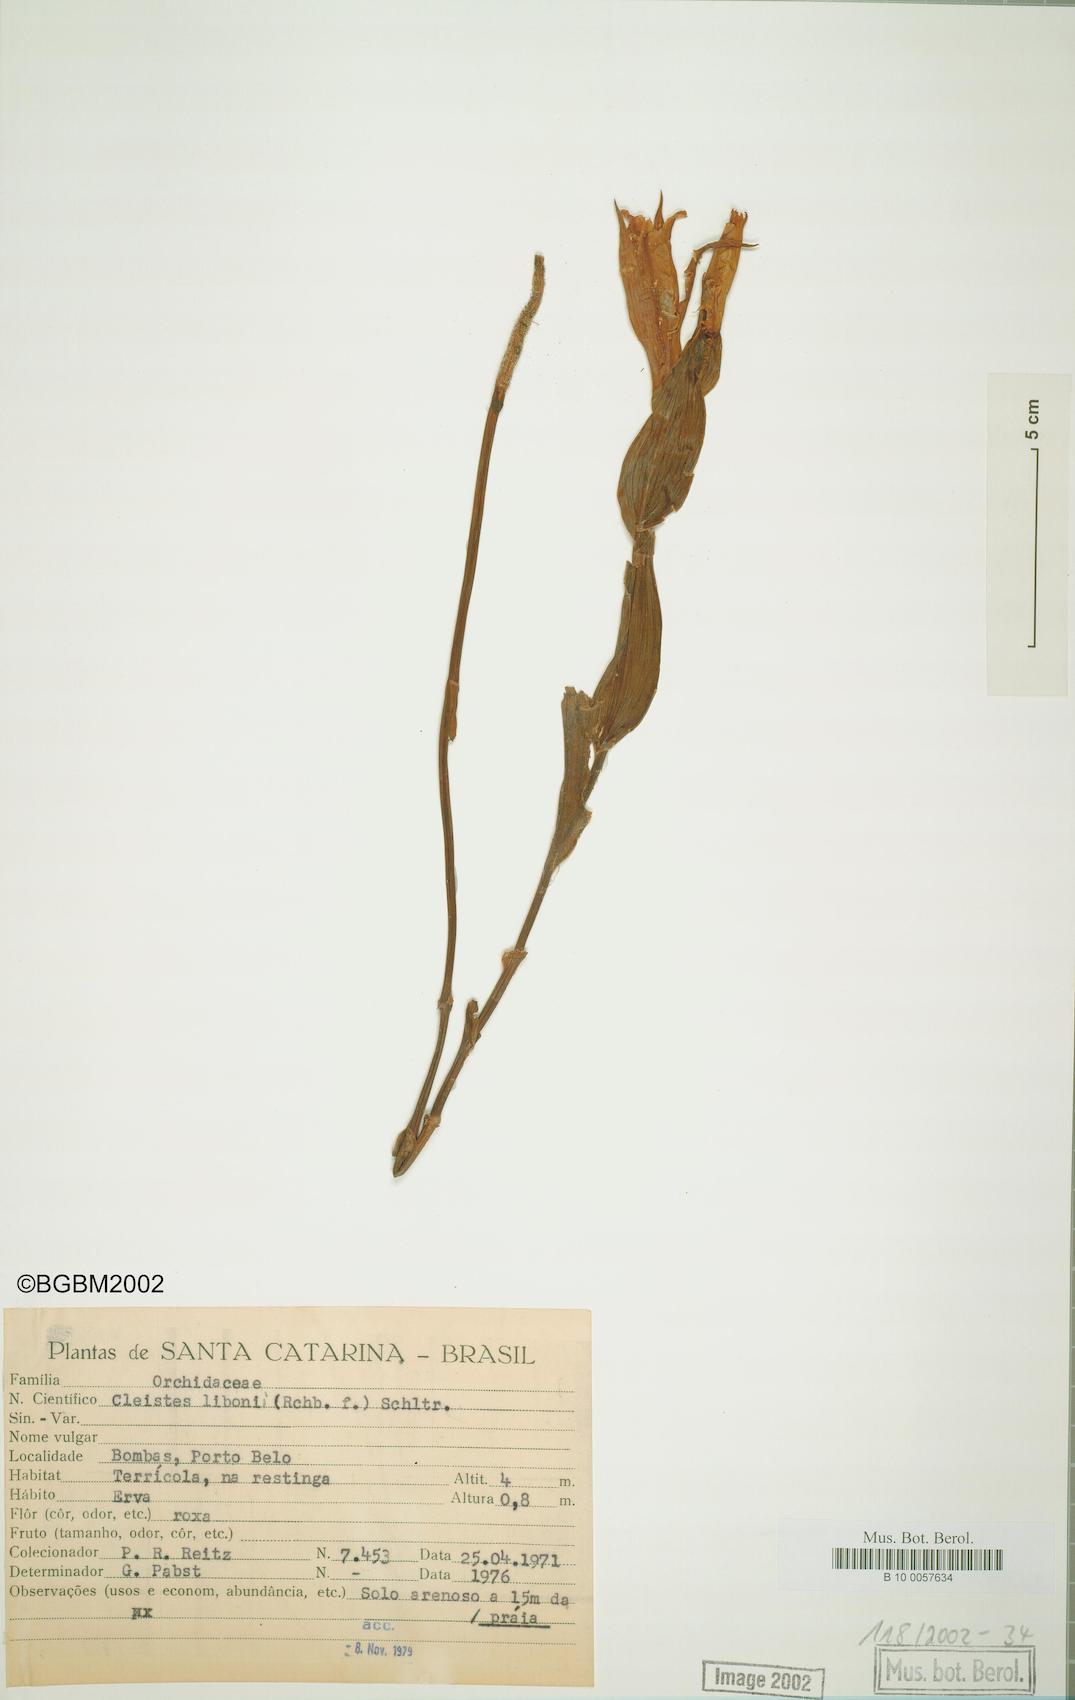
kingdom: Plantae
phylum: Tracheophyta
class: Liliopsida
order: Asparagales
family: Orchidaceae
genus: Cleistes
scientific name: Cleistes libonii
